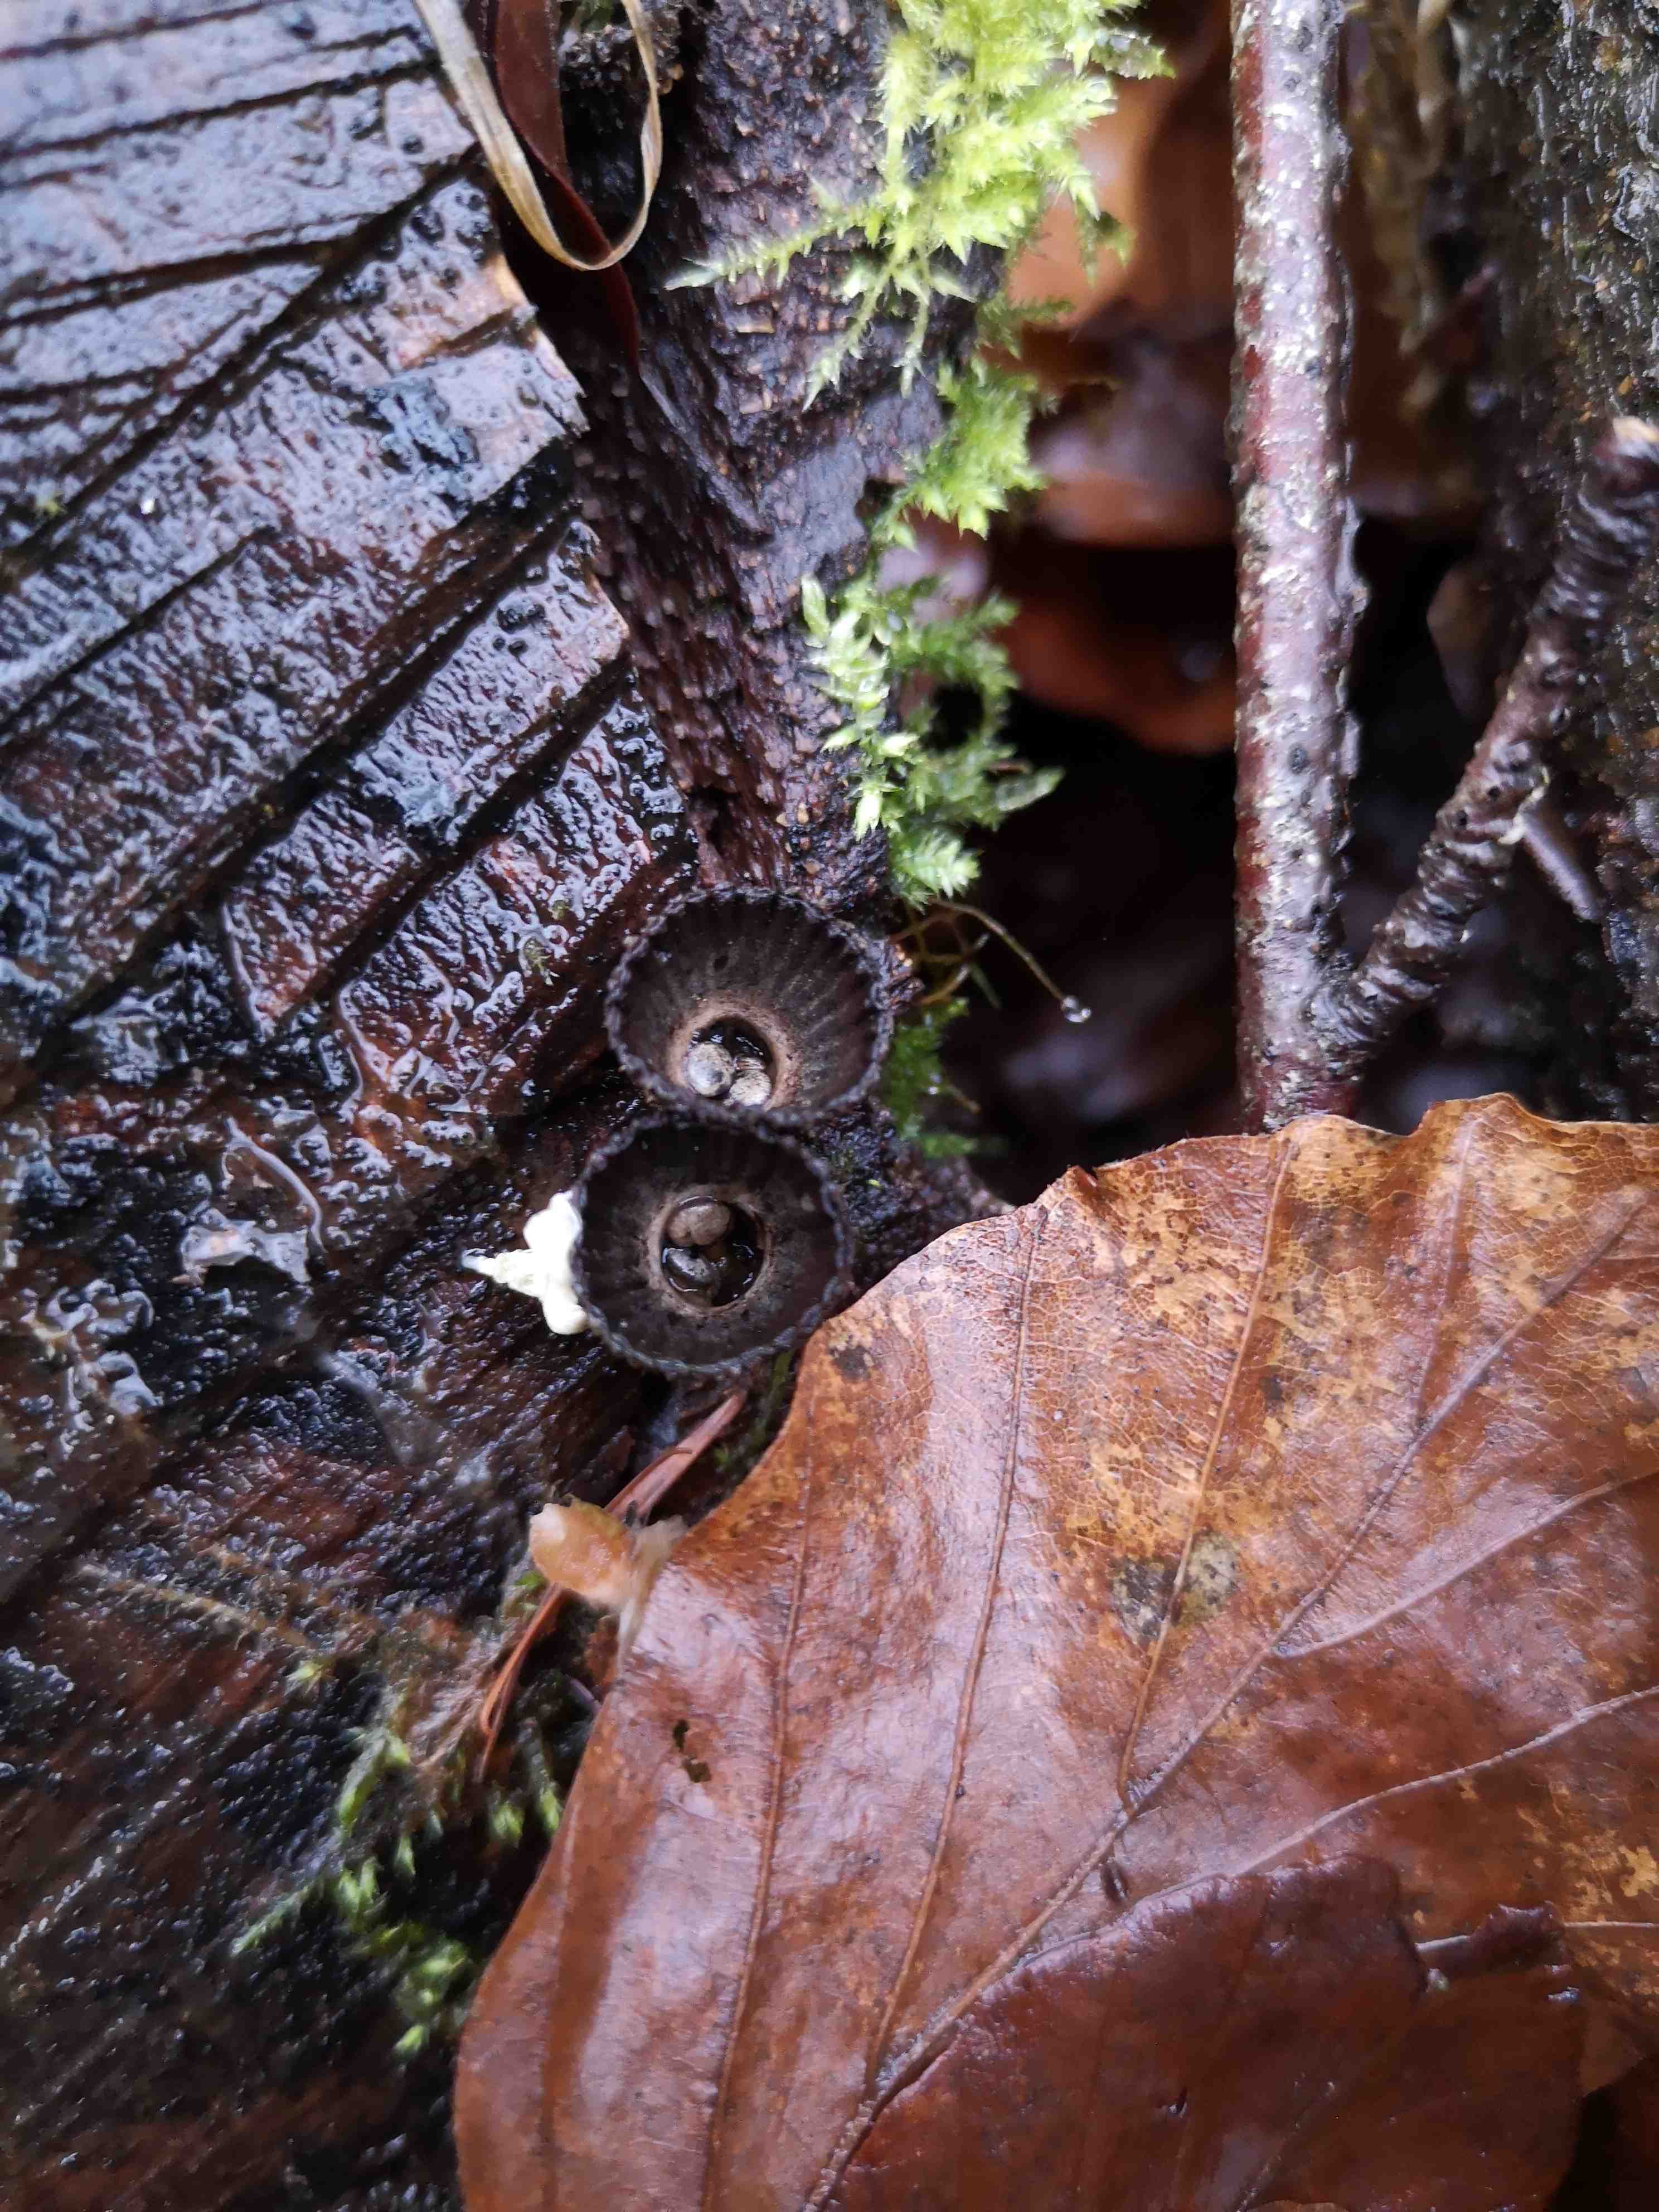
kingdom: Fungi
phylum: Basidiomycota
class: Agaricomycetes
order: Agaricales
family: Agaricaceae
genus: Cyathus
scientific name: Cyathus striatus
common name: stribet redesvamp
